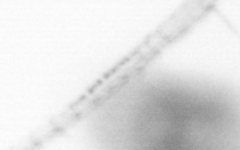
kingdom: Animalia
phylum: Arthropoda
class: Copepoda
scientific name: Copepoda
